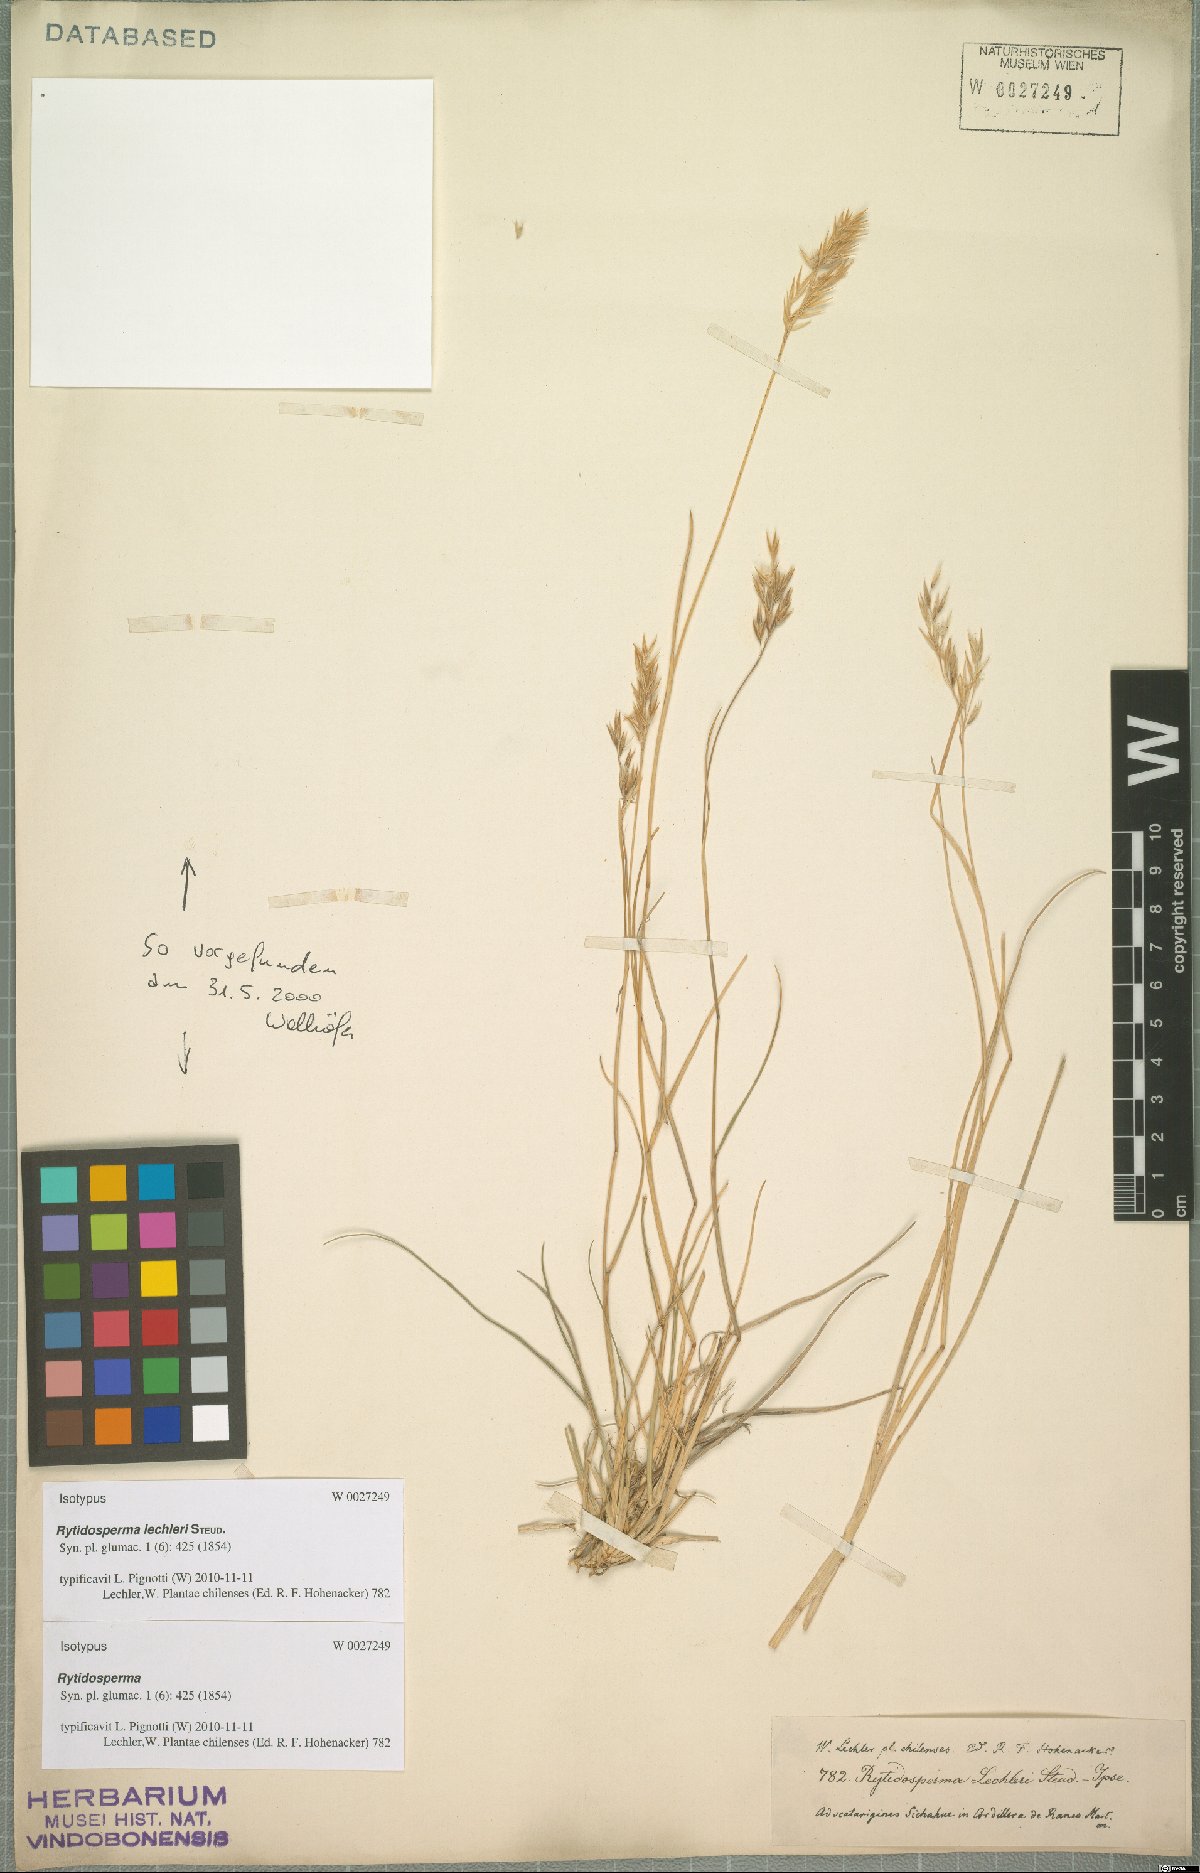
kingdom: Plantae
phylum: Tracheophyta
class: Liliopsida
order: Poales
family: Poaceae
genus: Rytidosperma
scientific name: Rytidosperma lechleri
